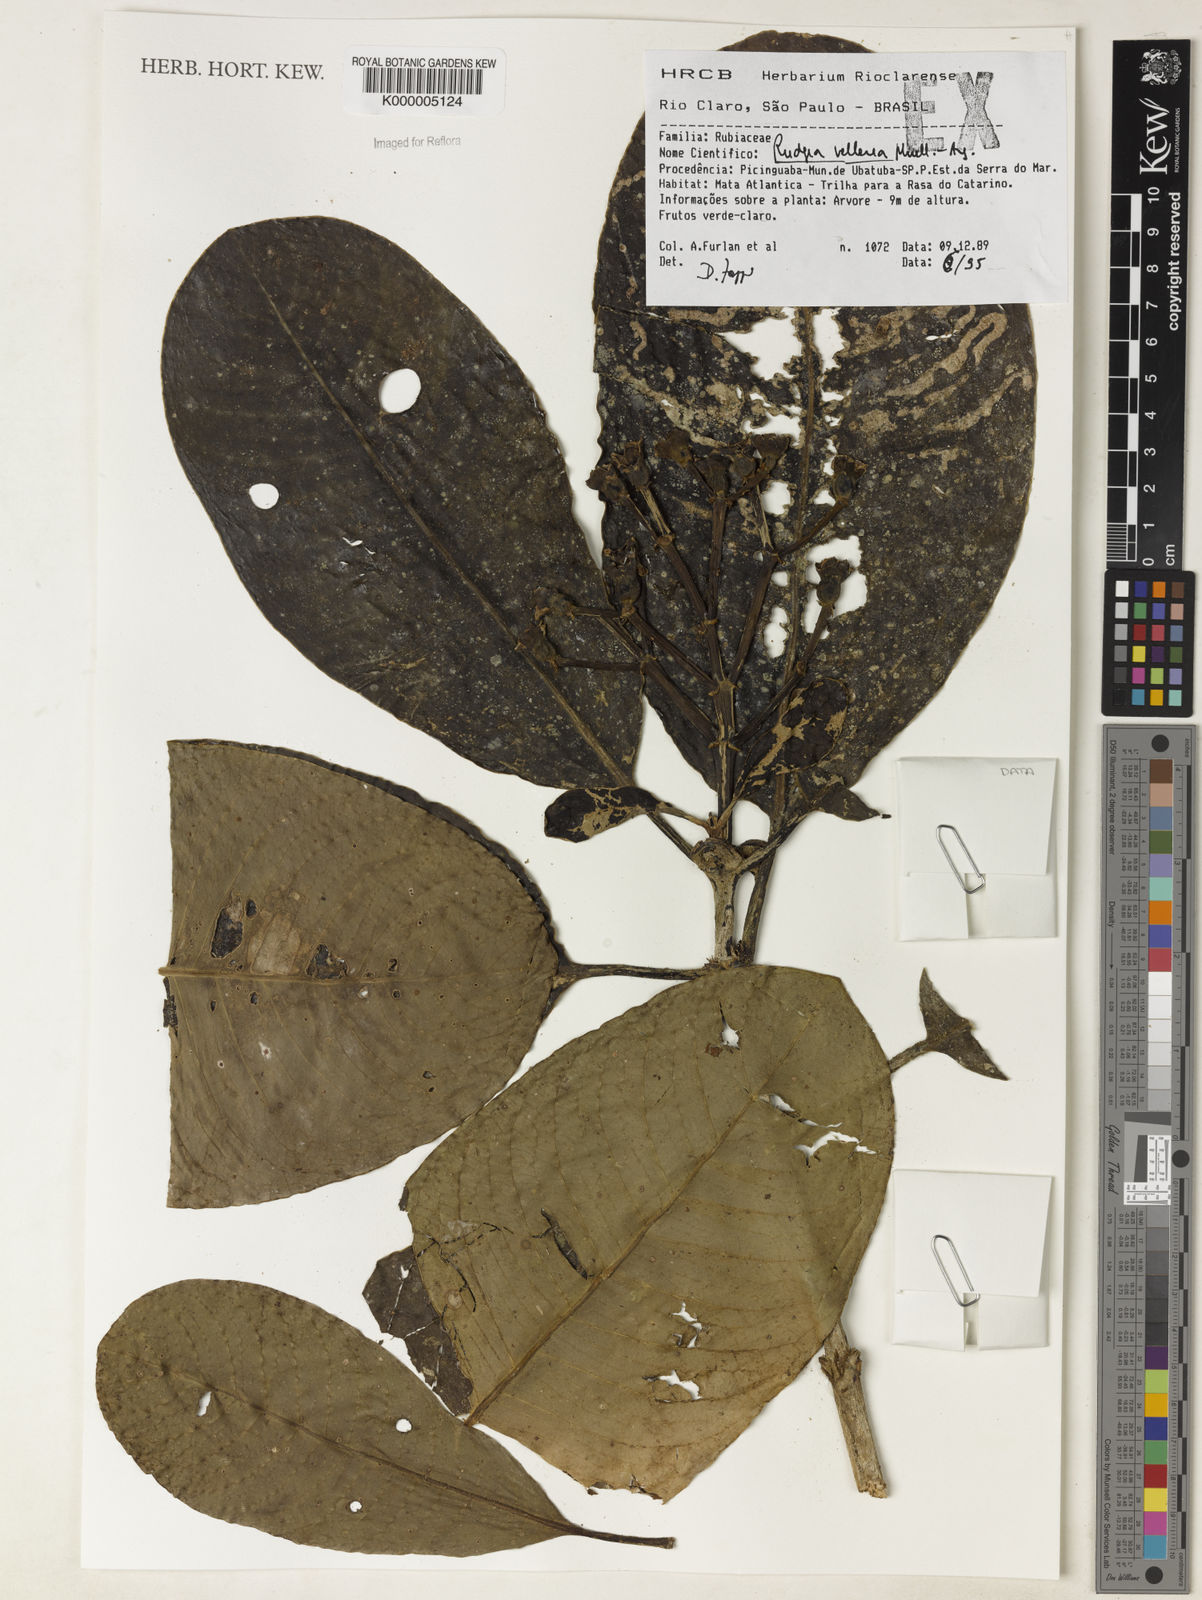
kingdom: Plantae
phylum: Tracheophyta
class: Magnoliopsida
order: Gentianales
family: Rubiaceae
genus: Rudgea
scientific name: Rudgea vellerea
